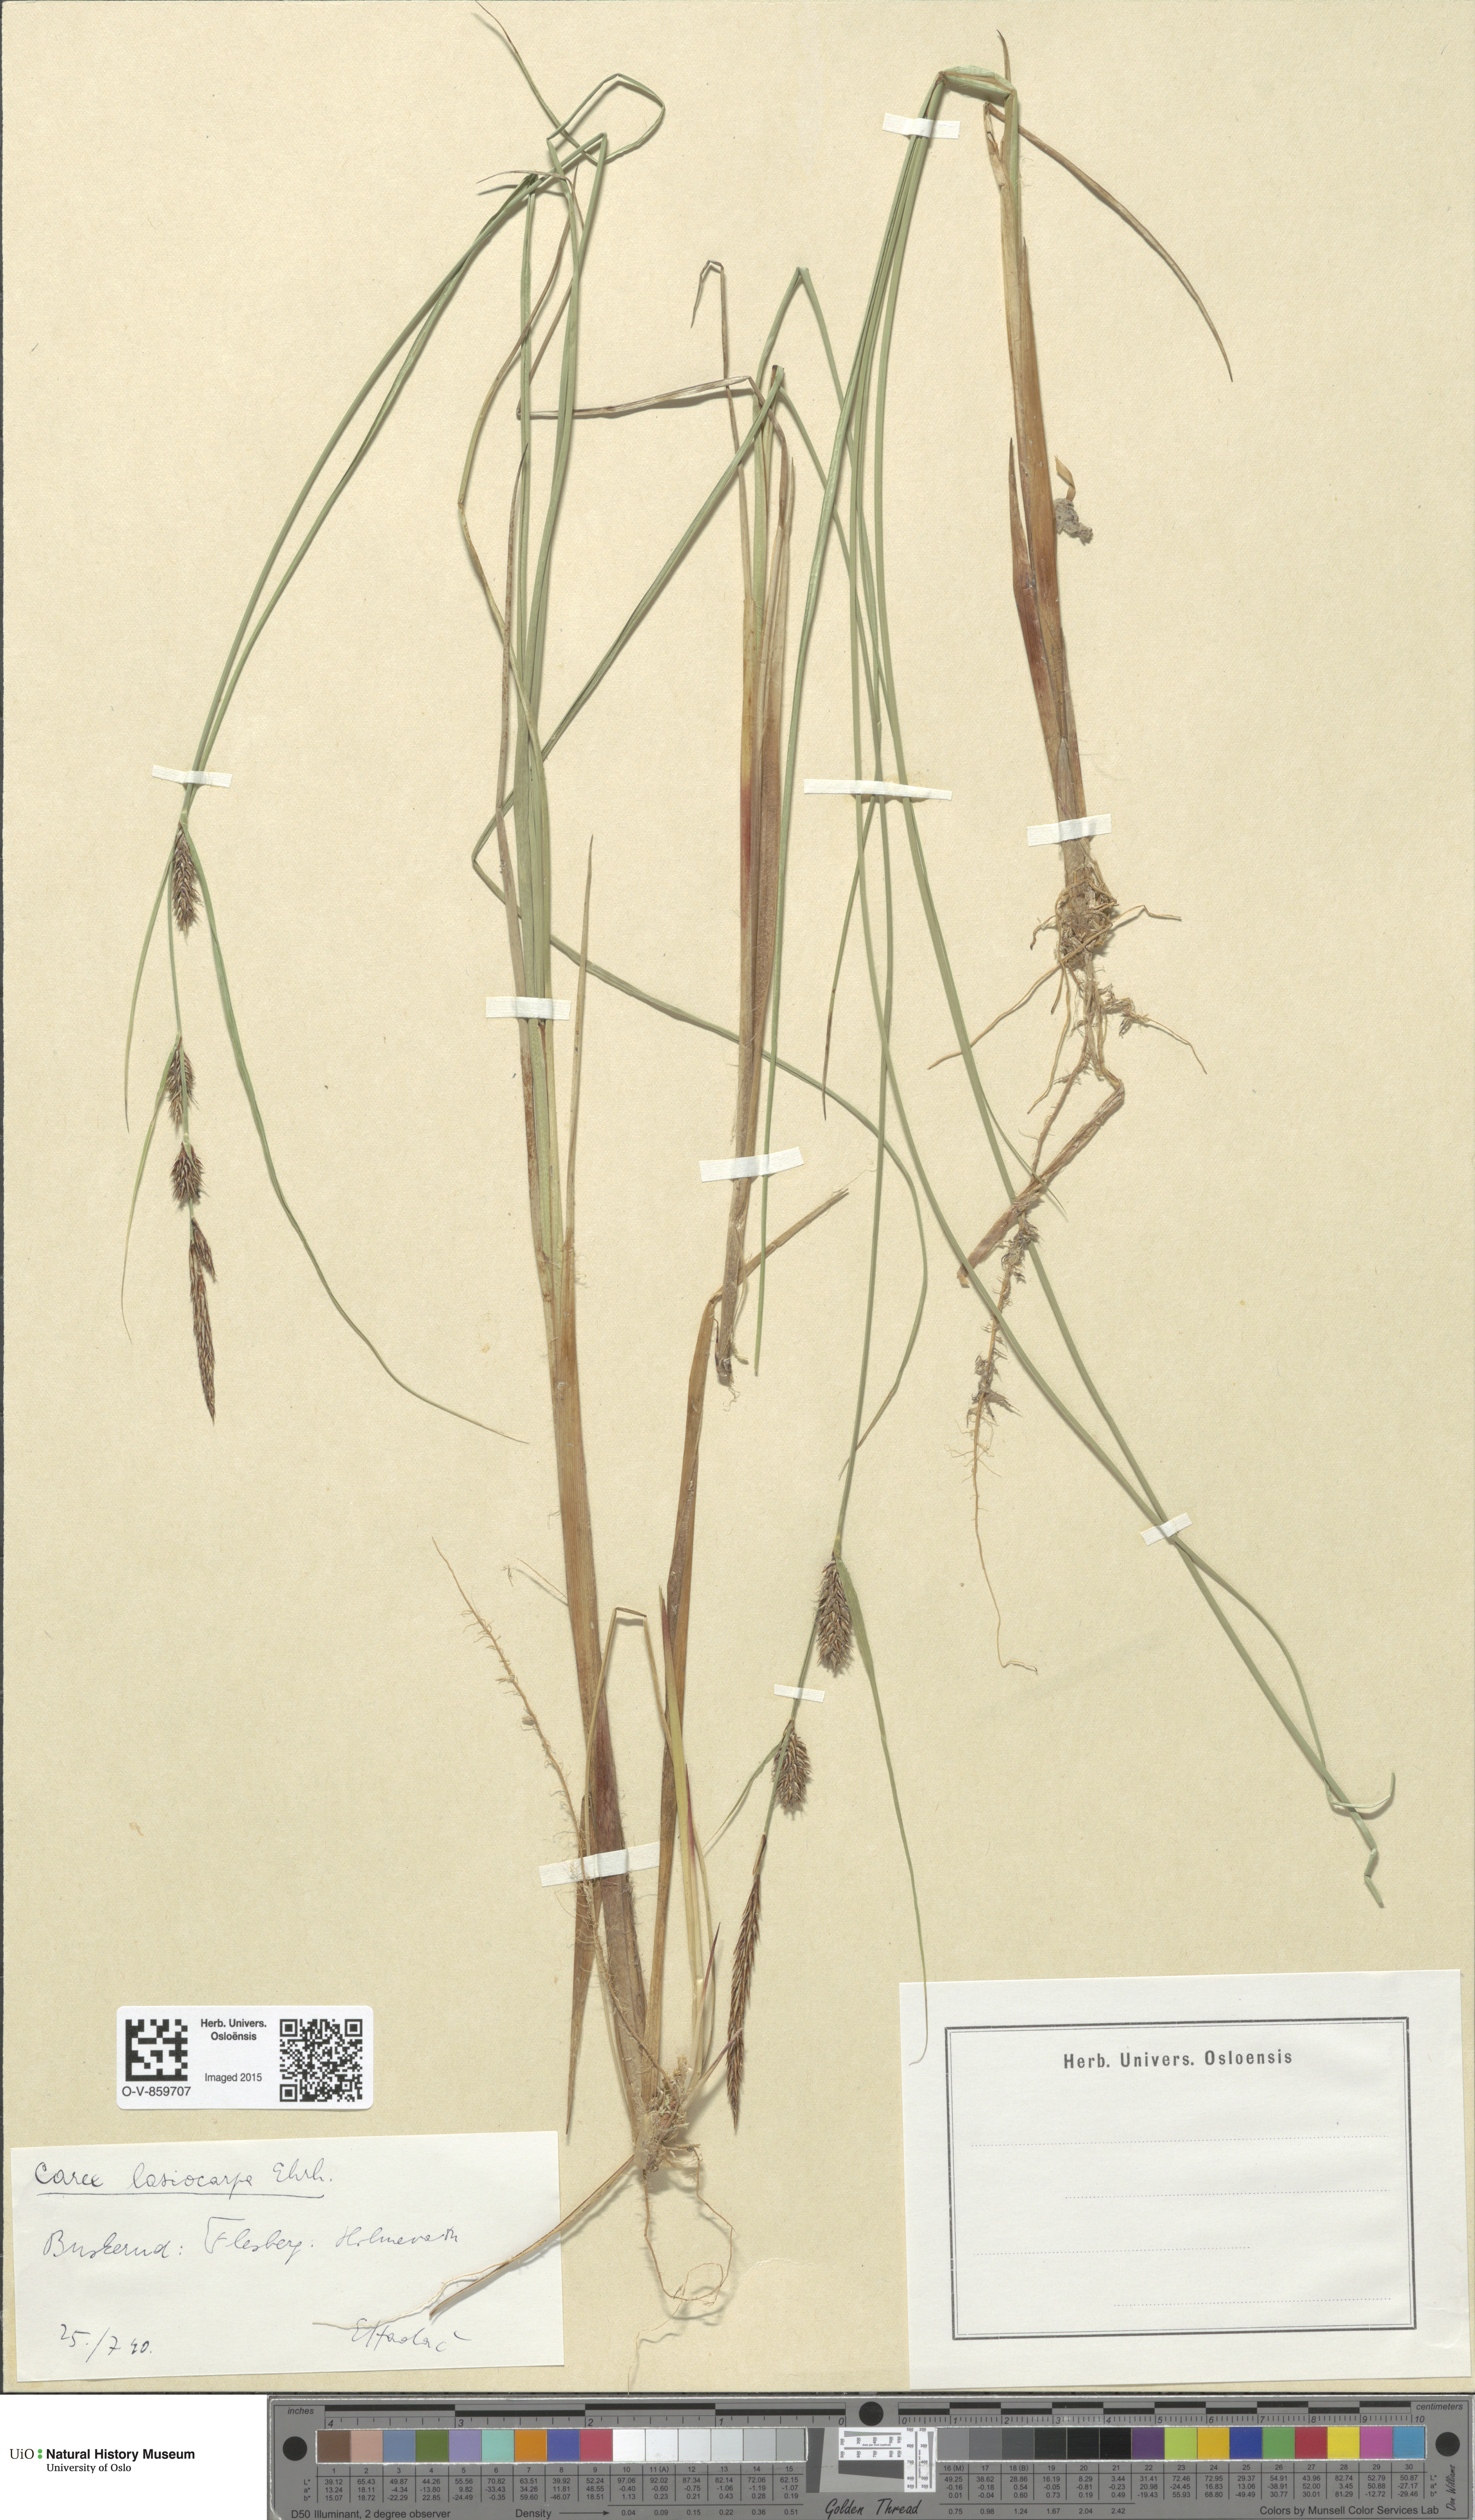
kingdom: Plantae
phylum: Tracheophyta
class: Liliopsida
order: Poales
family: Cyperaceae
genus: Carex
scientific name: Carex lasiocarpa
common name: Slender sedge
